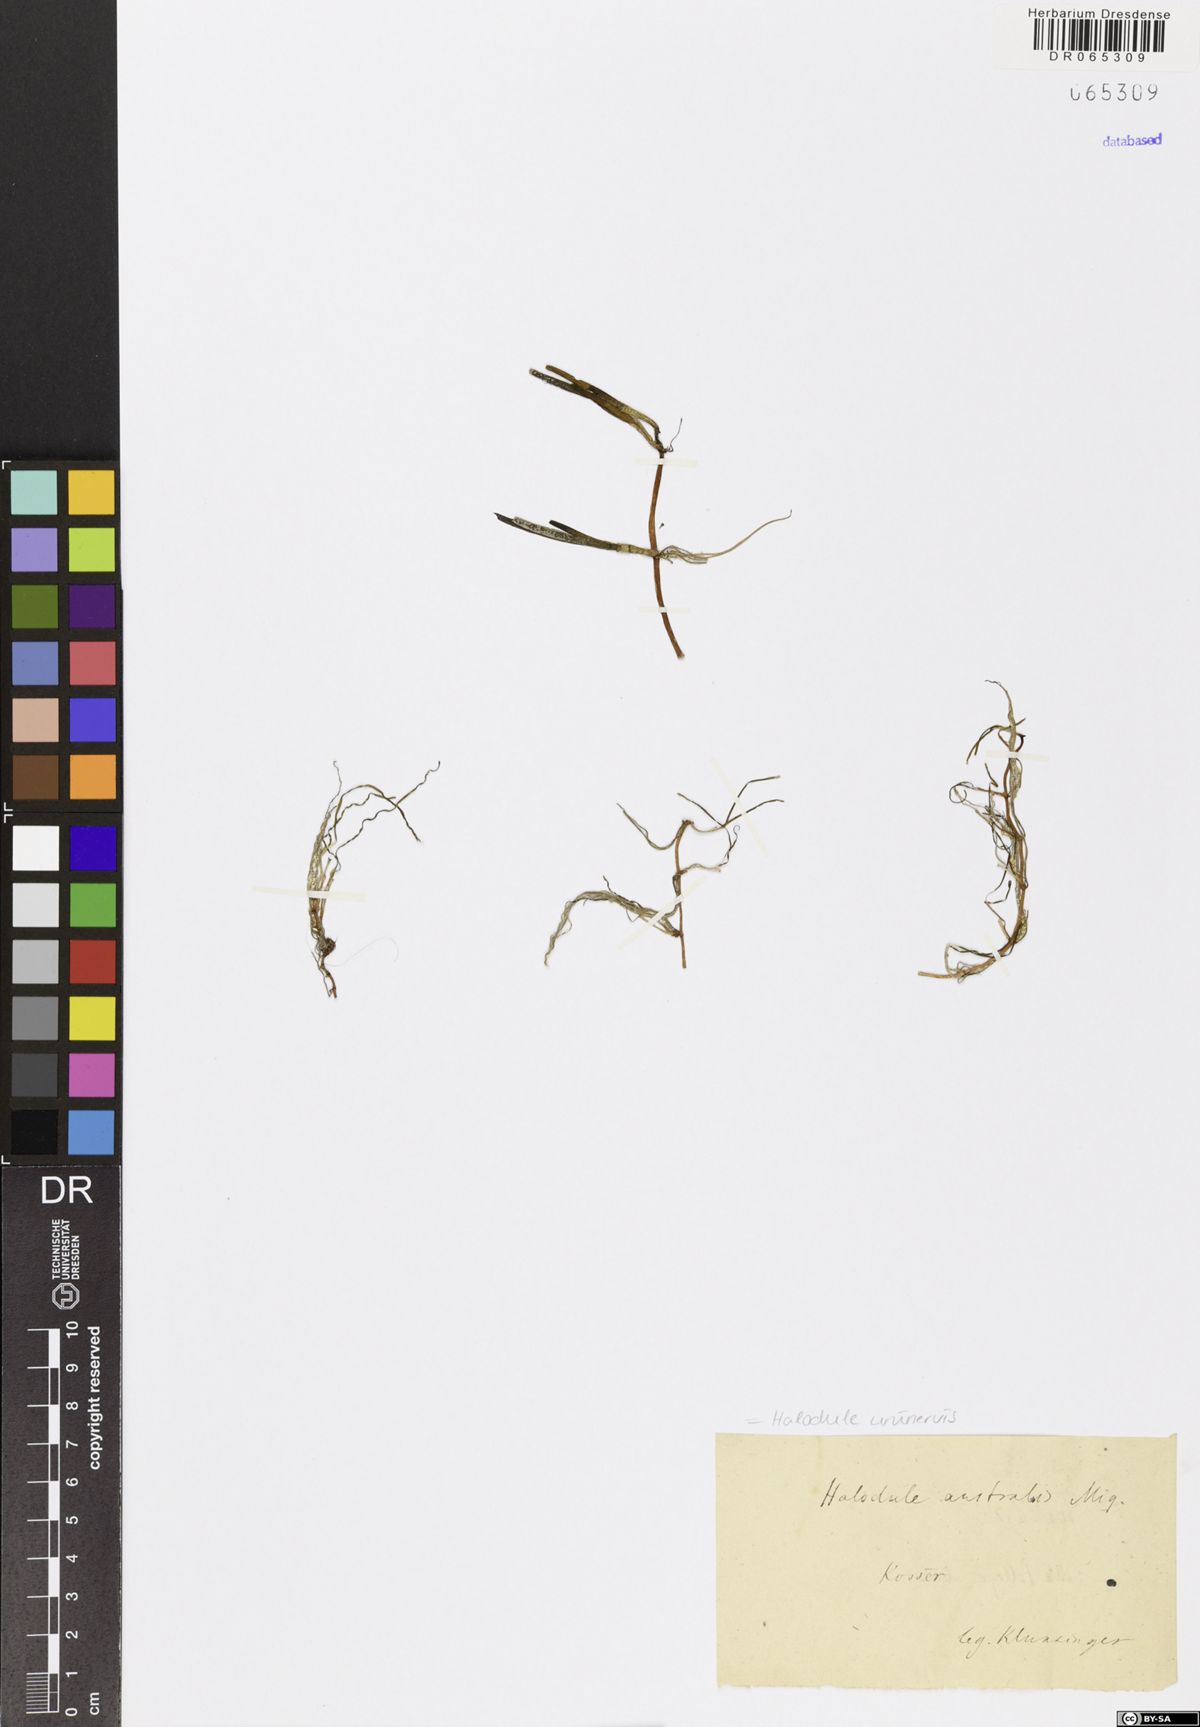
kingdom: Plantae
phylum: Tracheophyta
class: Liliopsida
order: Alismatales
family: Cymodoceaceae
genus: Halodule
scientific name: Halodule uninervis
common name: Narrowleaf seagrass
